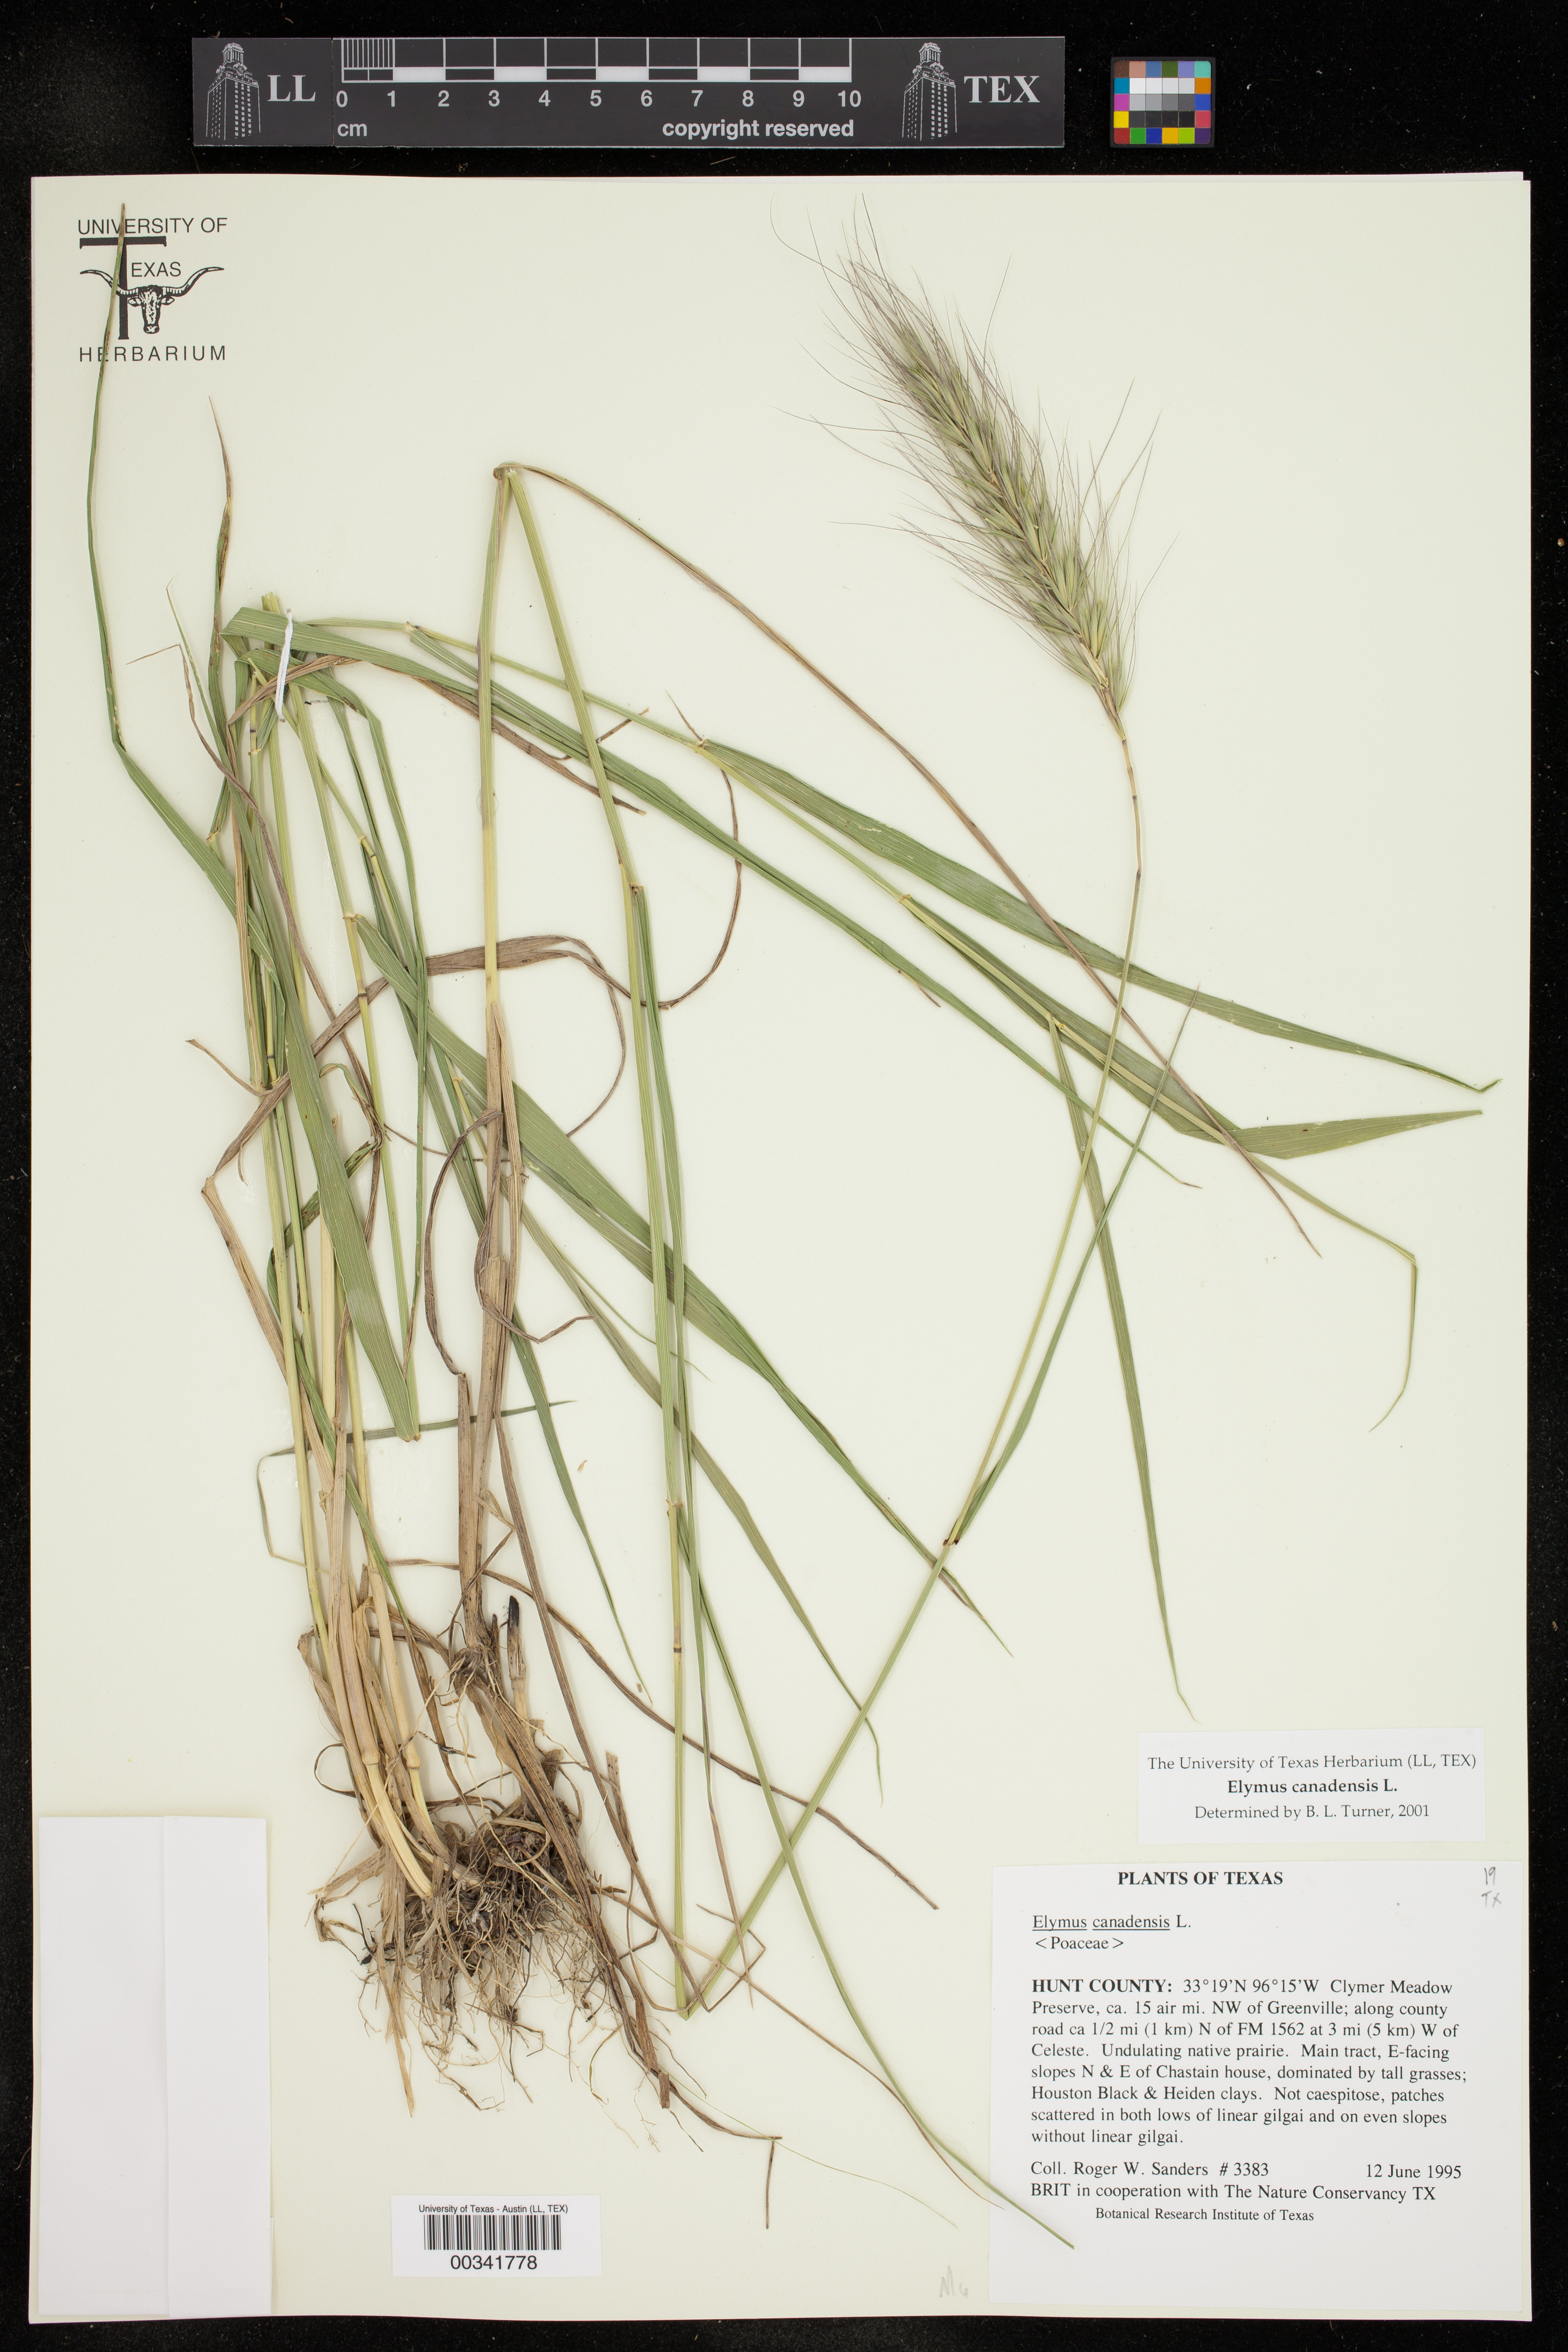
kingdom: Plantae
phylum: Tracheophyta
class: Liliopsida
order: Poales
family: Poaceae
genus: Elymus
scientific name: Elymus canadensis
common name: Canada wild rye
